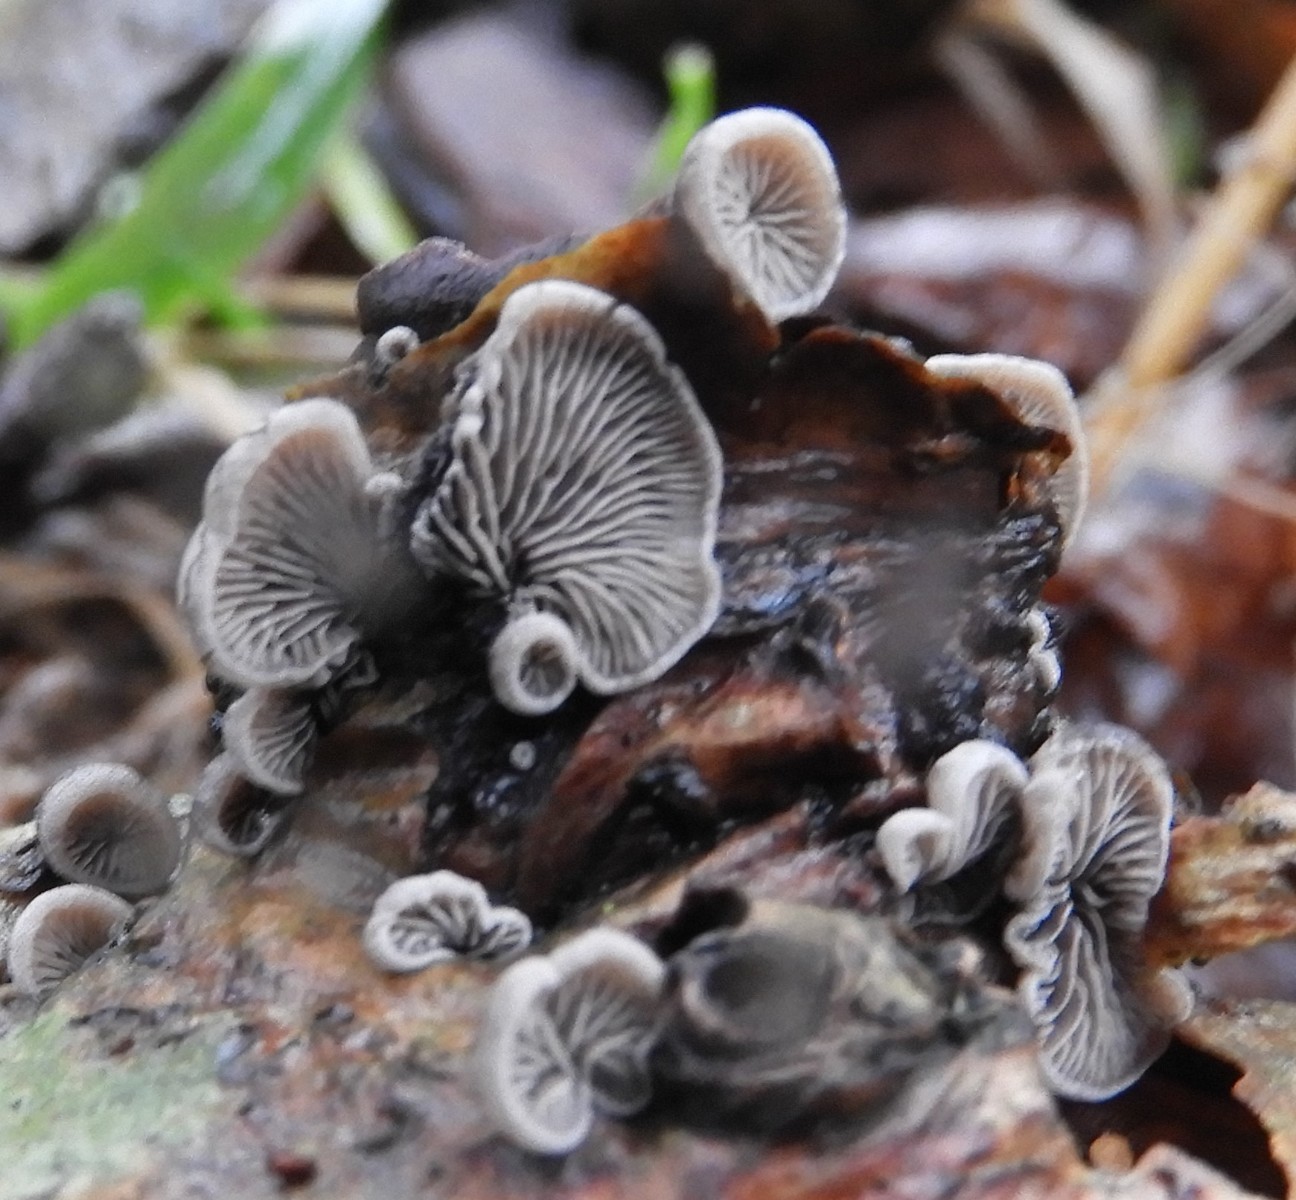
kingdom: Fungi
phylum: Basidiomycota
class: Agaricomycetes
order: Agaricales
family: Pleurotaceae
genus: Resupinatus
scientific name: Resupinatus trichotis
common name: mørkfiltet barkhat
